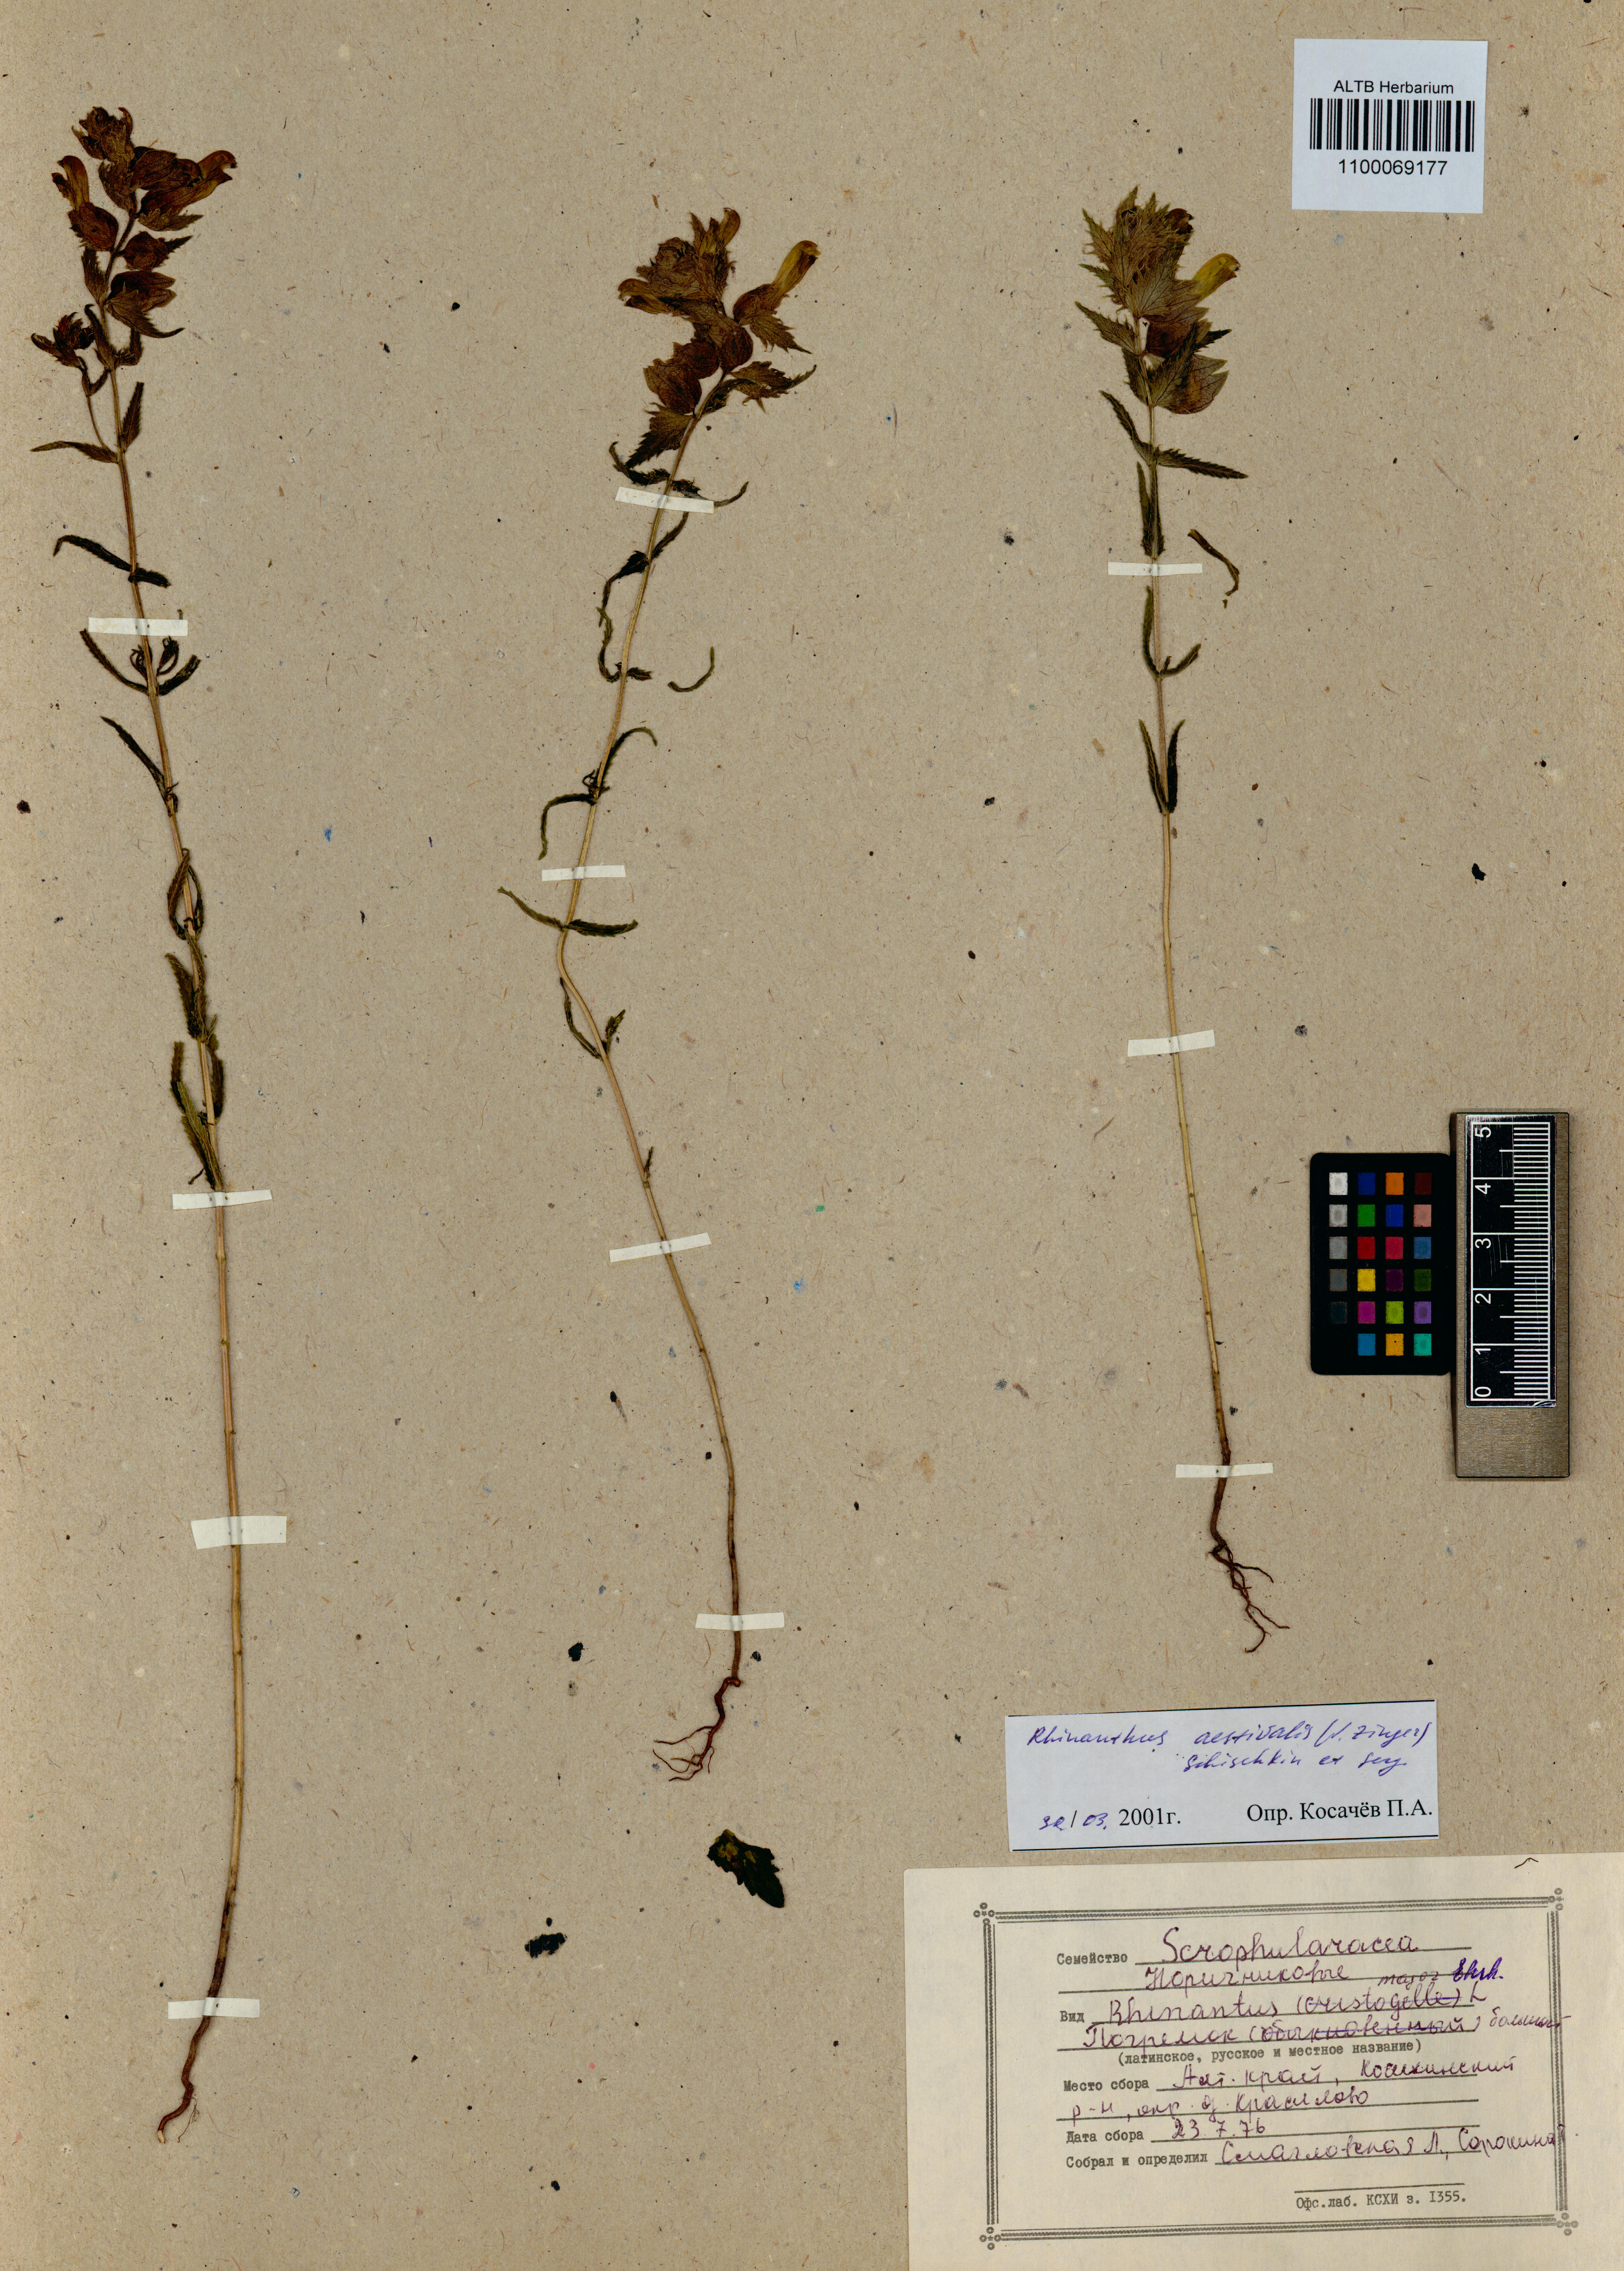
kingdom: Plantae
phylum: Tracheophyta
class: Magnoliopsida
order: Lamiales
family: Orobanchaceae
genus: Rhinanthus
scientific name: Rhinanthus serotinus
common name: Late-flowering yellow rattle
